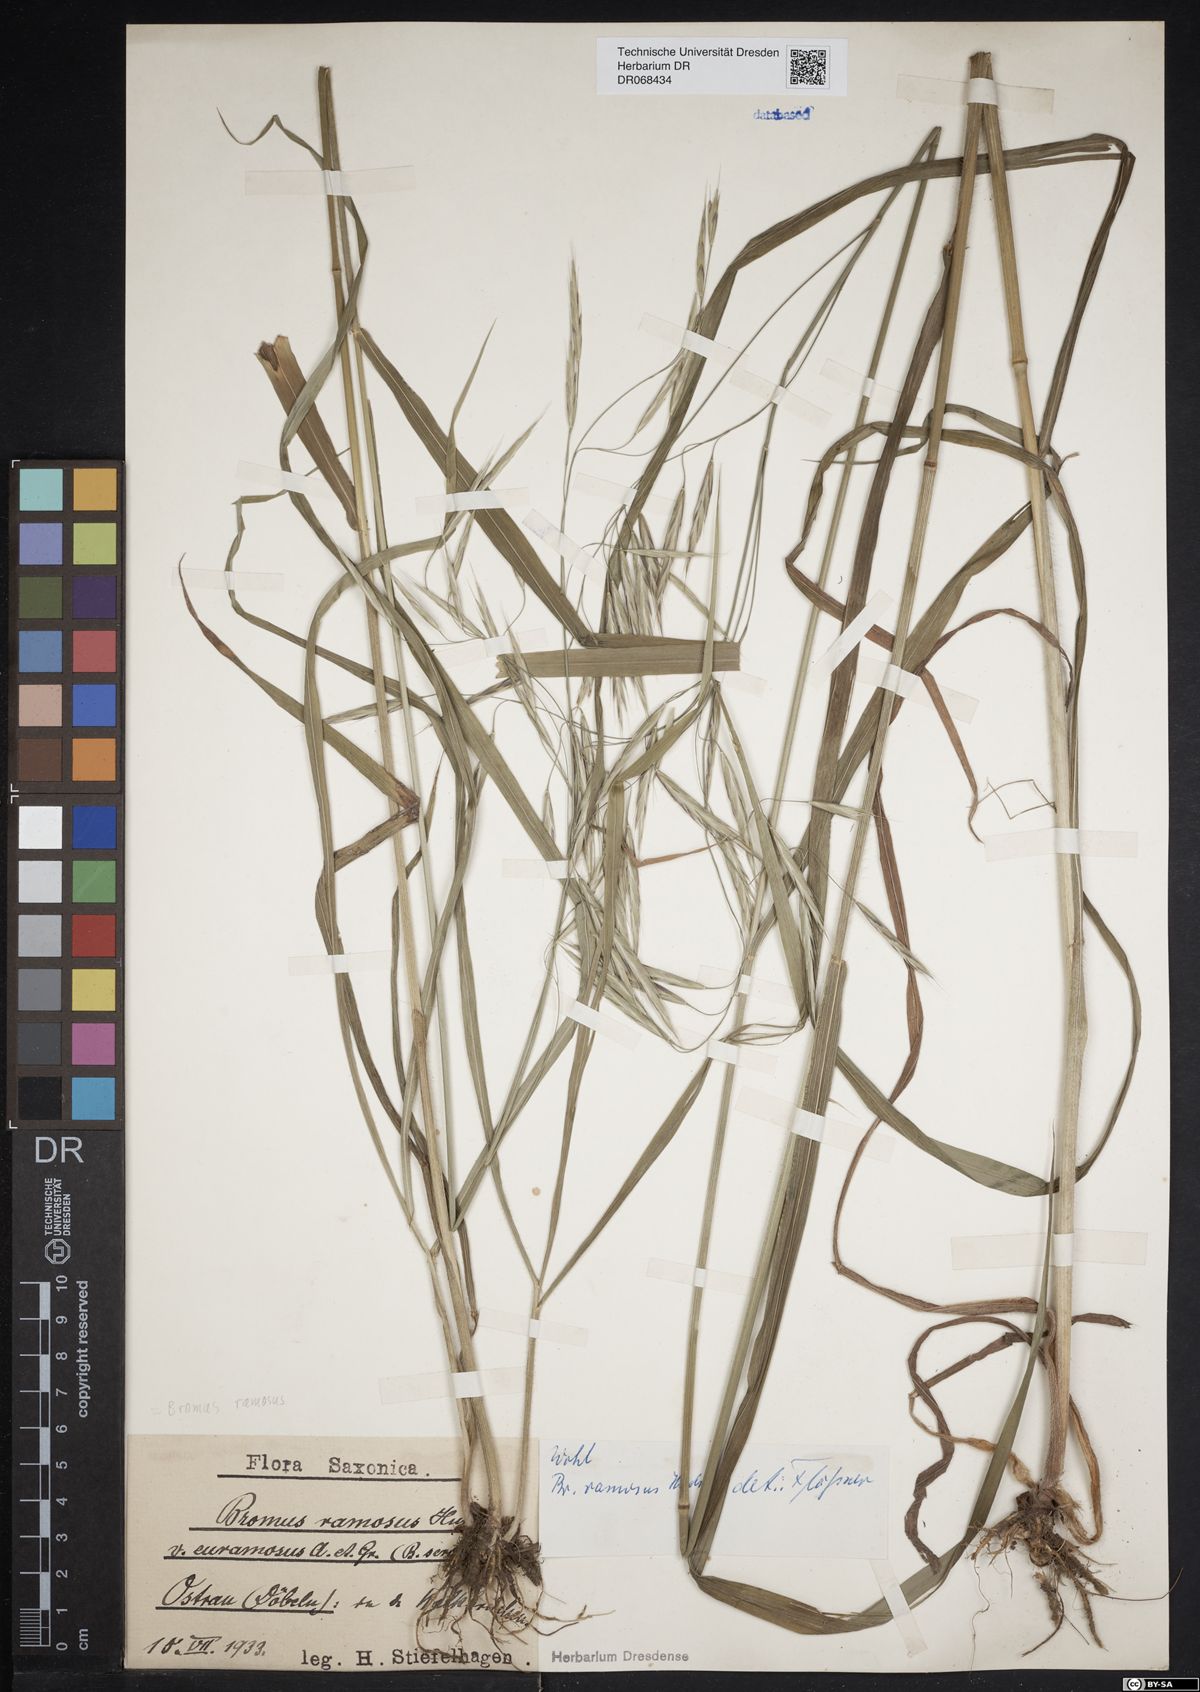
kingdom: Plantae
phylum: Tracheophyta
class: Liliopsida
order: Poales
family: Poaceae
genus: Bromus
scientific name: Bromus ramosus
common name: Hairy brome
